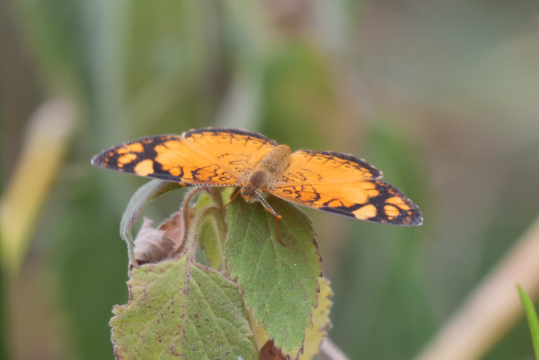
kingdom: Animalia
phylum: Arthropoda
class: Insecta
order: Lepidoptera
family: Nymphalidae
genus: Tegosa
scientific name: Tegosa orobia
